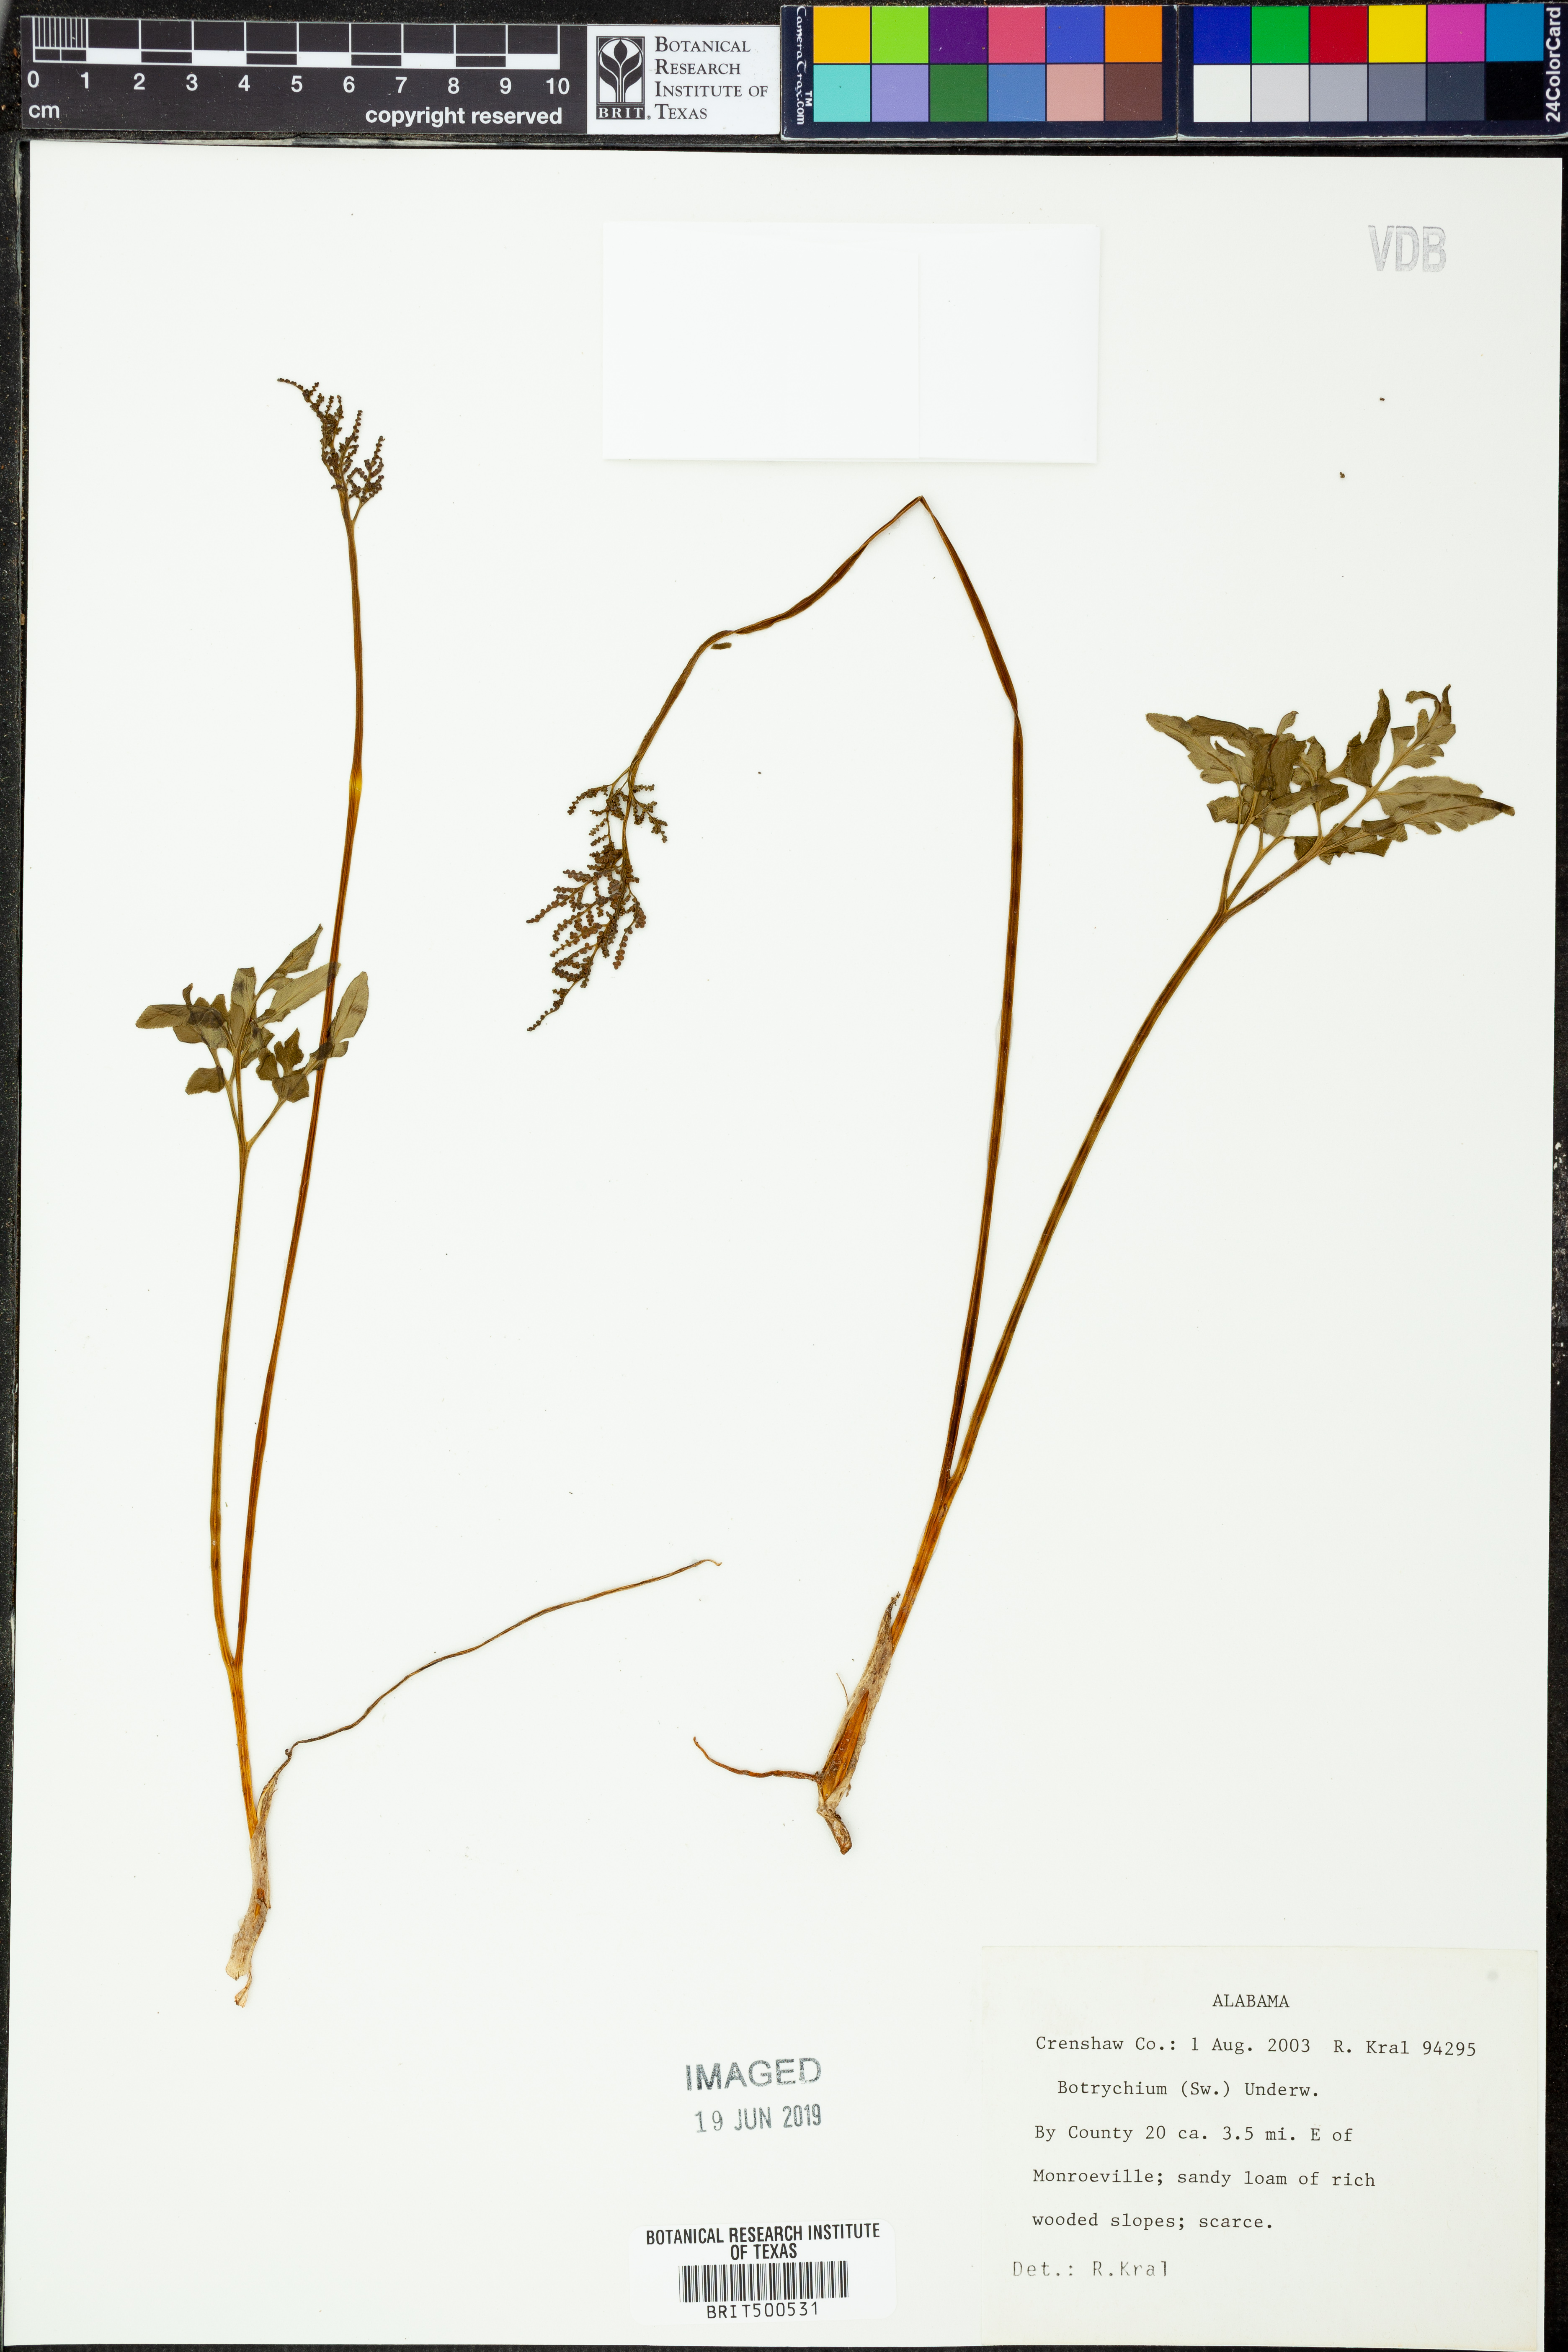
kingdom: Plantae
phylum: Tracheophyta
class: Polypodiopsida
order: Ophioglossales
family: Ophioglossaceae
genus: Botrychium
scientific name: Botrychium
